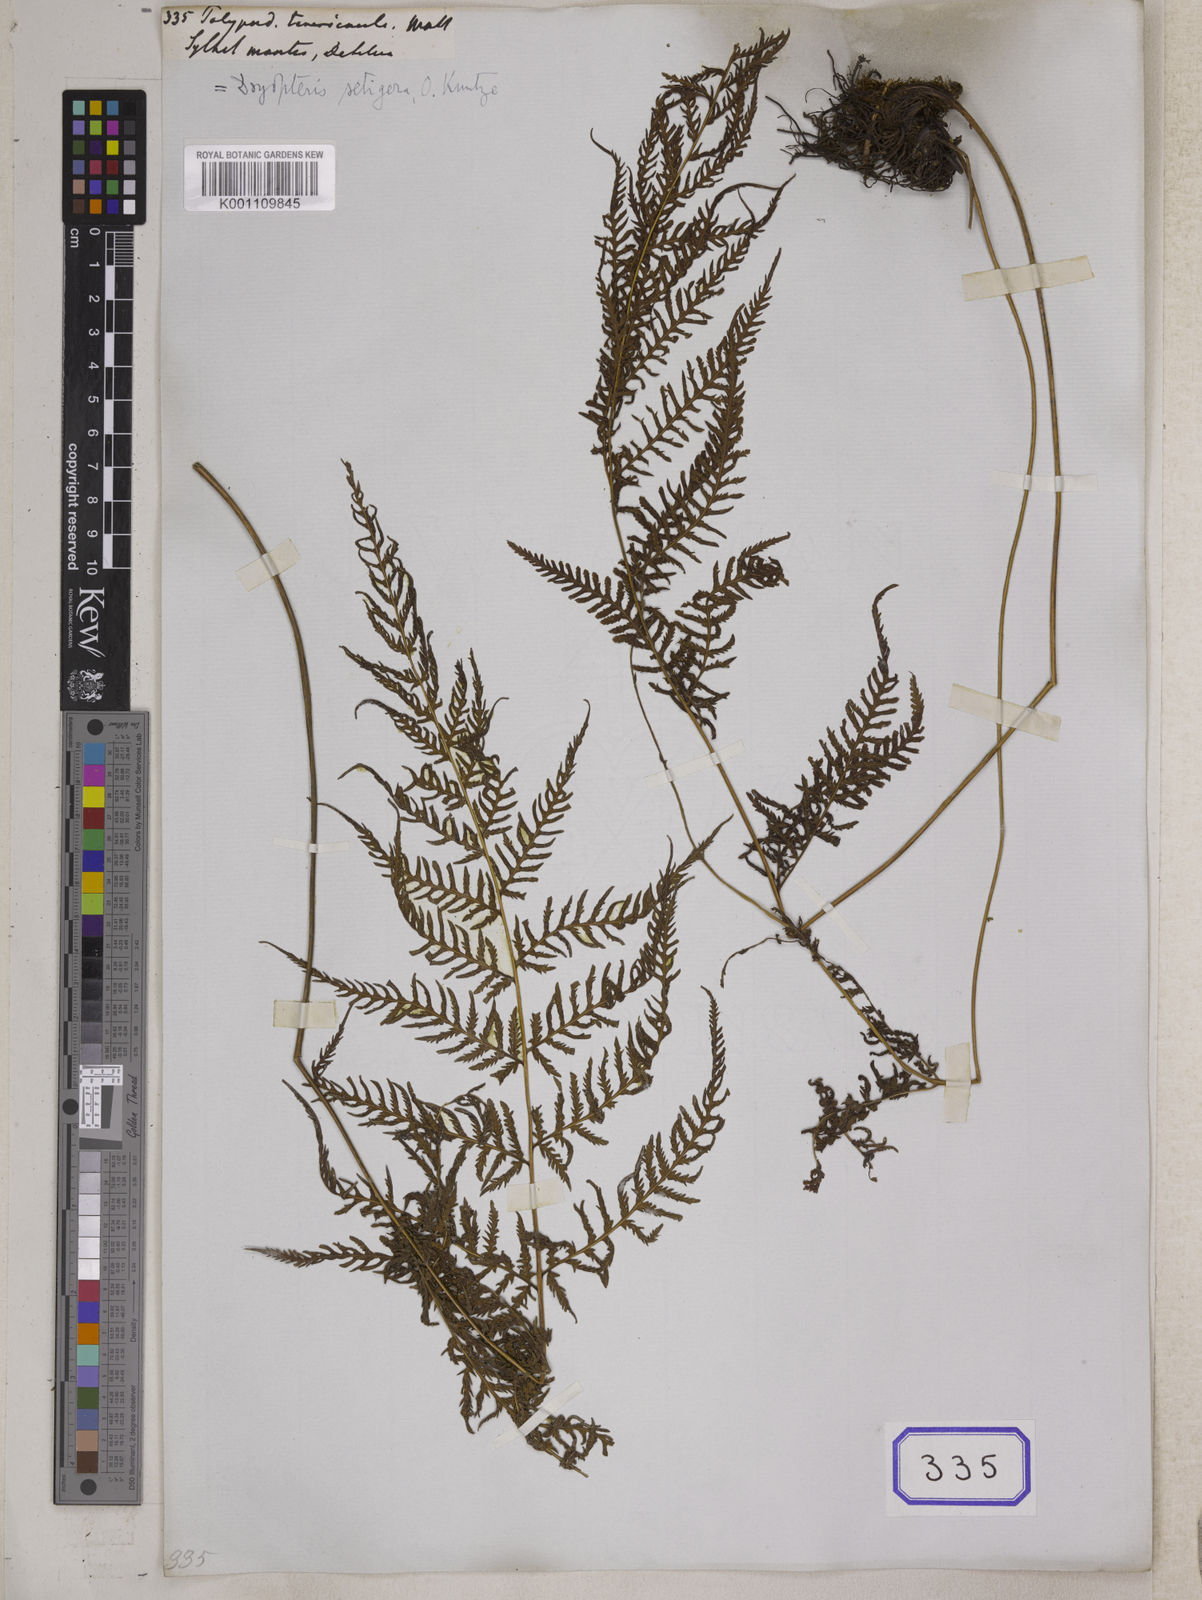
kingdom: Plantae
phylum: Tracheophyta
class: Polypodiopsida
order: Polypodiales
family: Polypodiaceae
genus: Polypodium
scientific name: Polypodium
